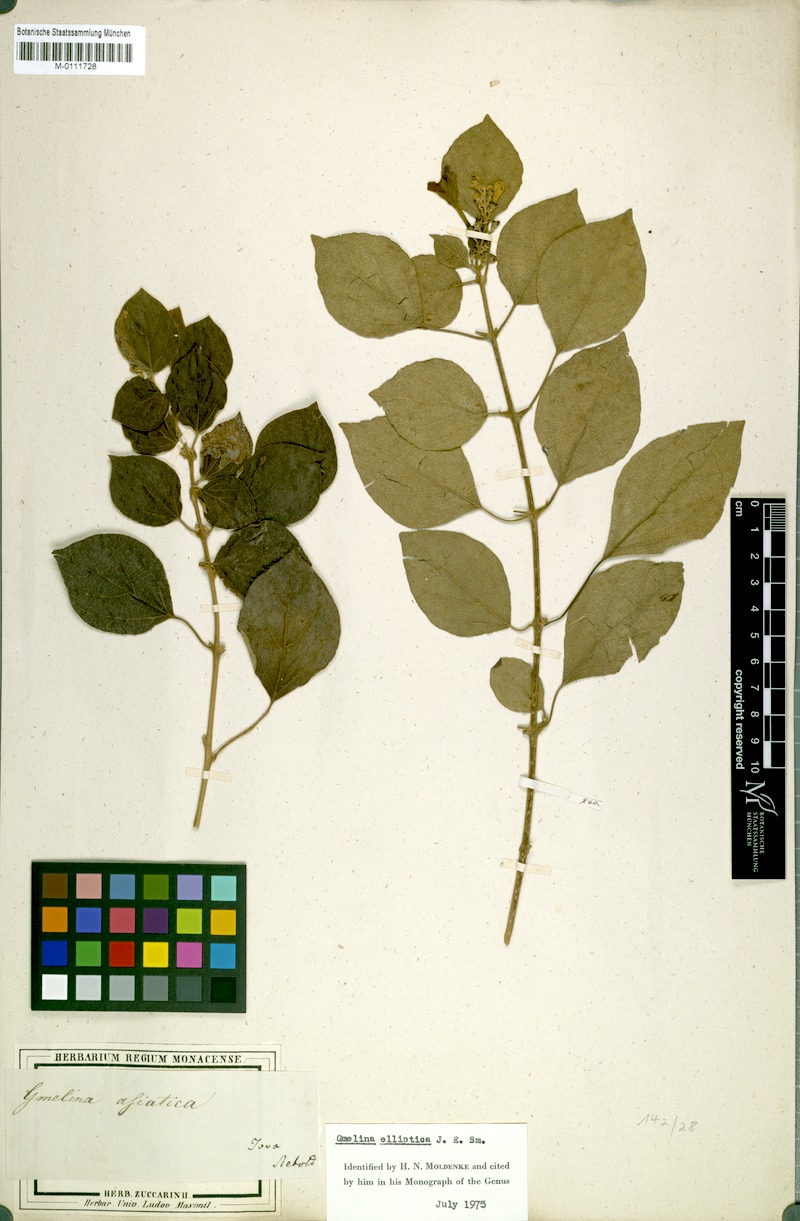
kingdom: Plantae
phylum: Tracheophyta
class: Magnoliopsida
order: Lamiales
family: Lamiaceae
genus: Gmelina
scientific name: Gmelina elliptica
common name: Badhara-bush
